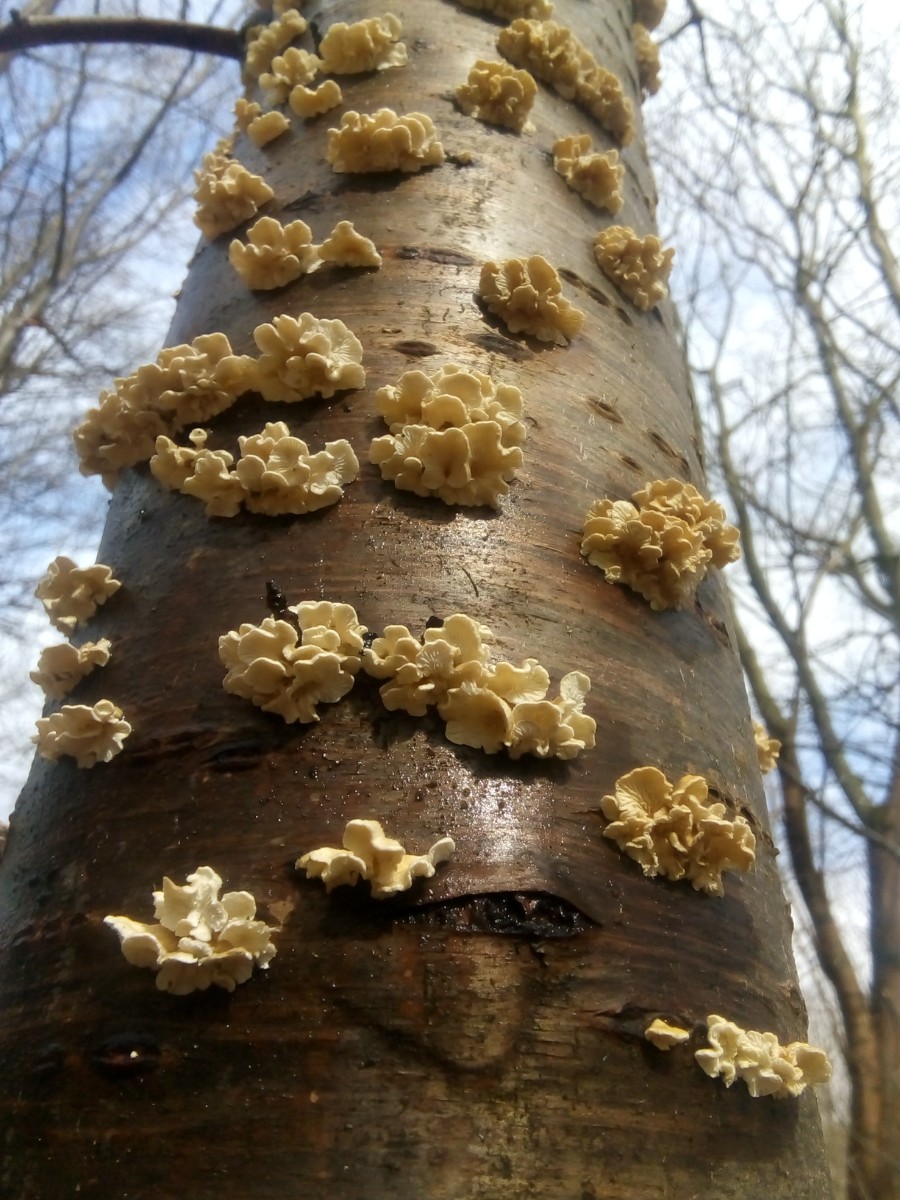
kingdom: Fungi
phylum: Basidiomycota
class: Agaricomycetes
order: Amylocorticiales
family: Amylocorticiaceae
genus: Plicaturopsis
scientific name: Plicaturopsis crispa
